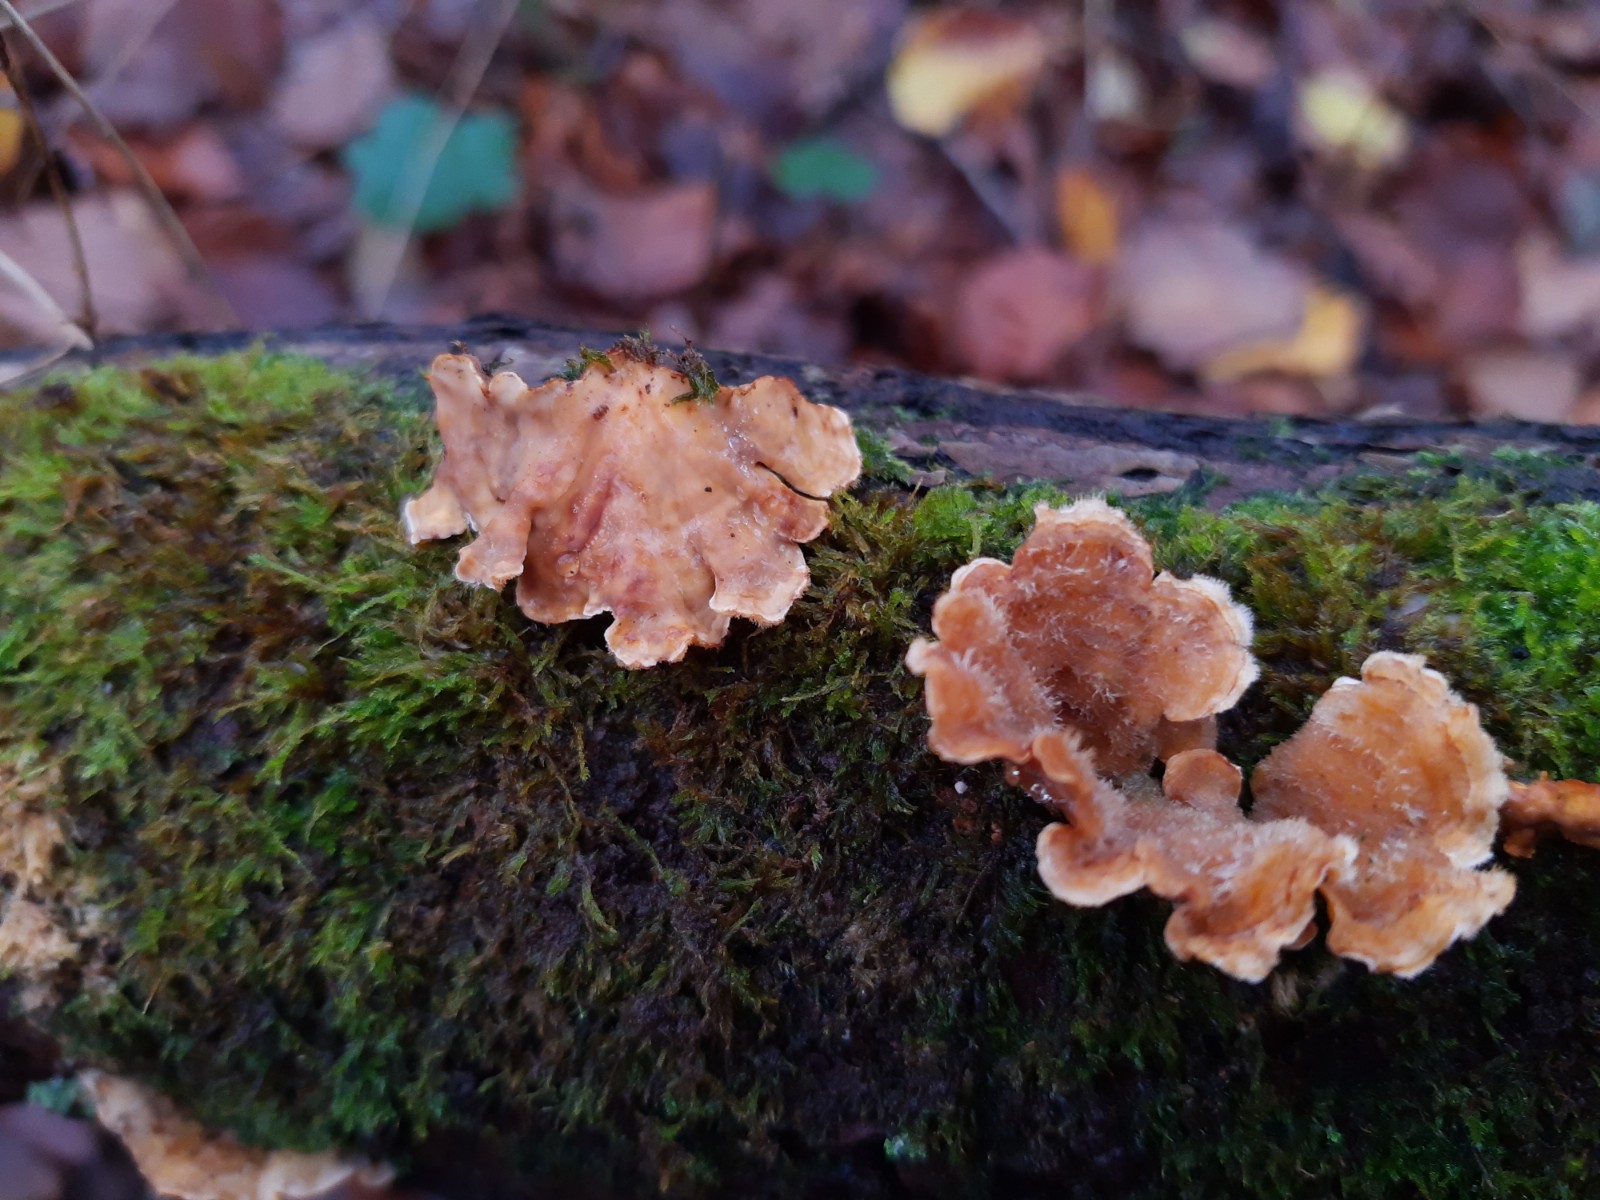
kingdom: Fungi
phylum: Basidiomycota
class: Agaricomycetes
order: Russulales
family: Stereaceae
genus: Stereum
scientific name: Stereum hirsutum
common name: håret lædersvamp
